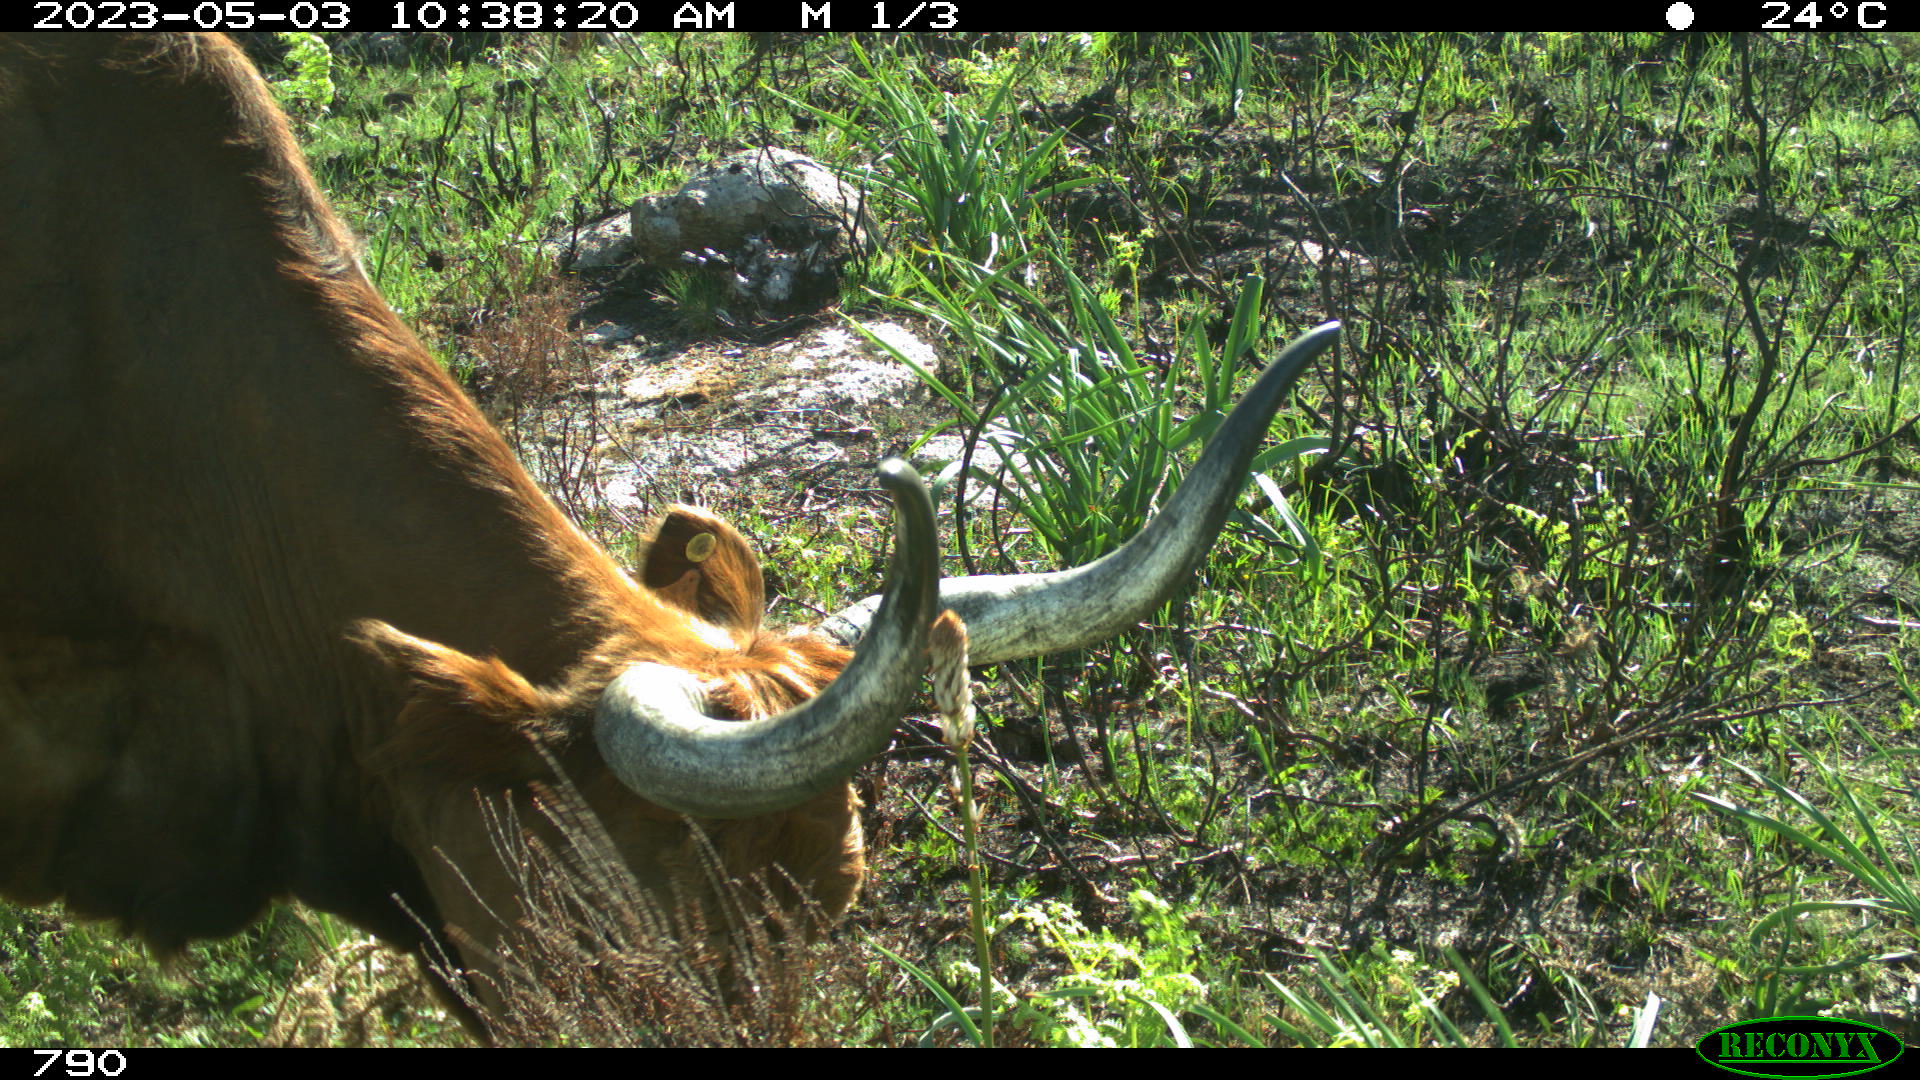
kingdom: Animalia
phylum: Chordata
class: Mammalia
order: Artiodactyla
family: Bovidae
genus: Bos
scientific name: Bos taurus
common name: Domesticated cattle
